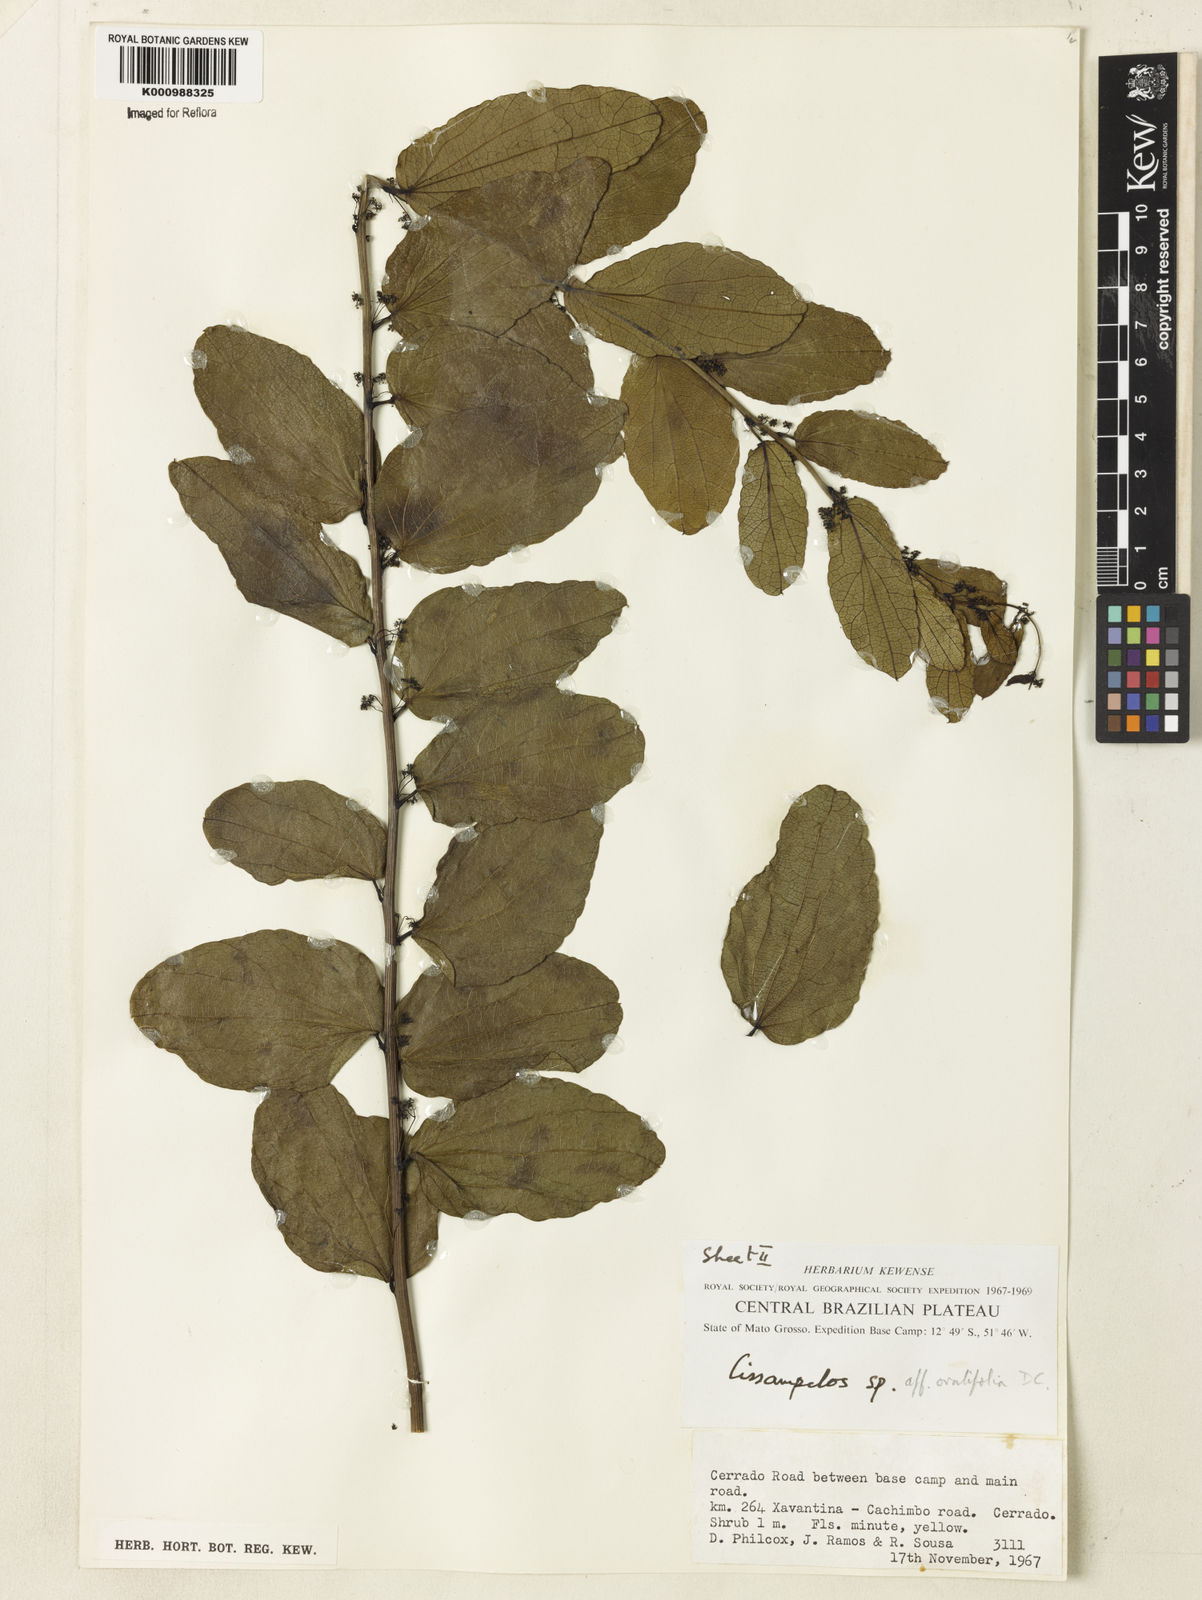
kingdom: Plantae
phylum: Tracheophyta
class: Magnoliopsida
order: Ranunculales
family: Menispermaceae
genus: Cissampelos
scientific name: Cissampelos ovalifolia
